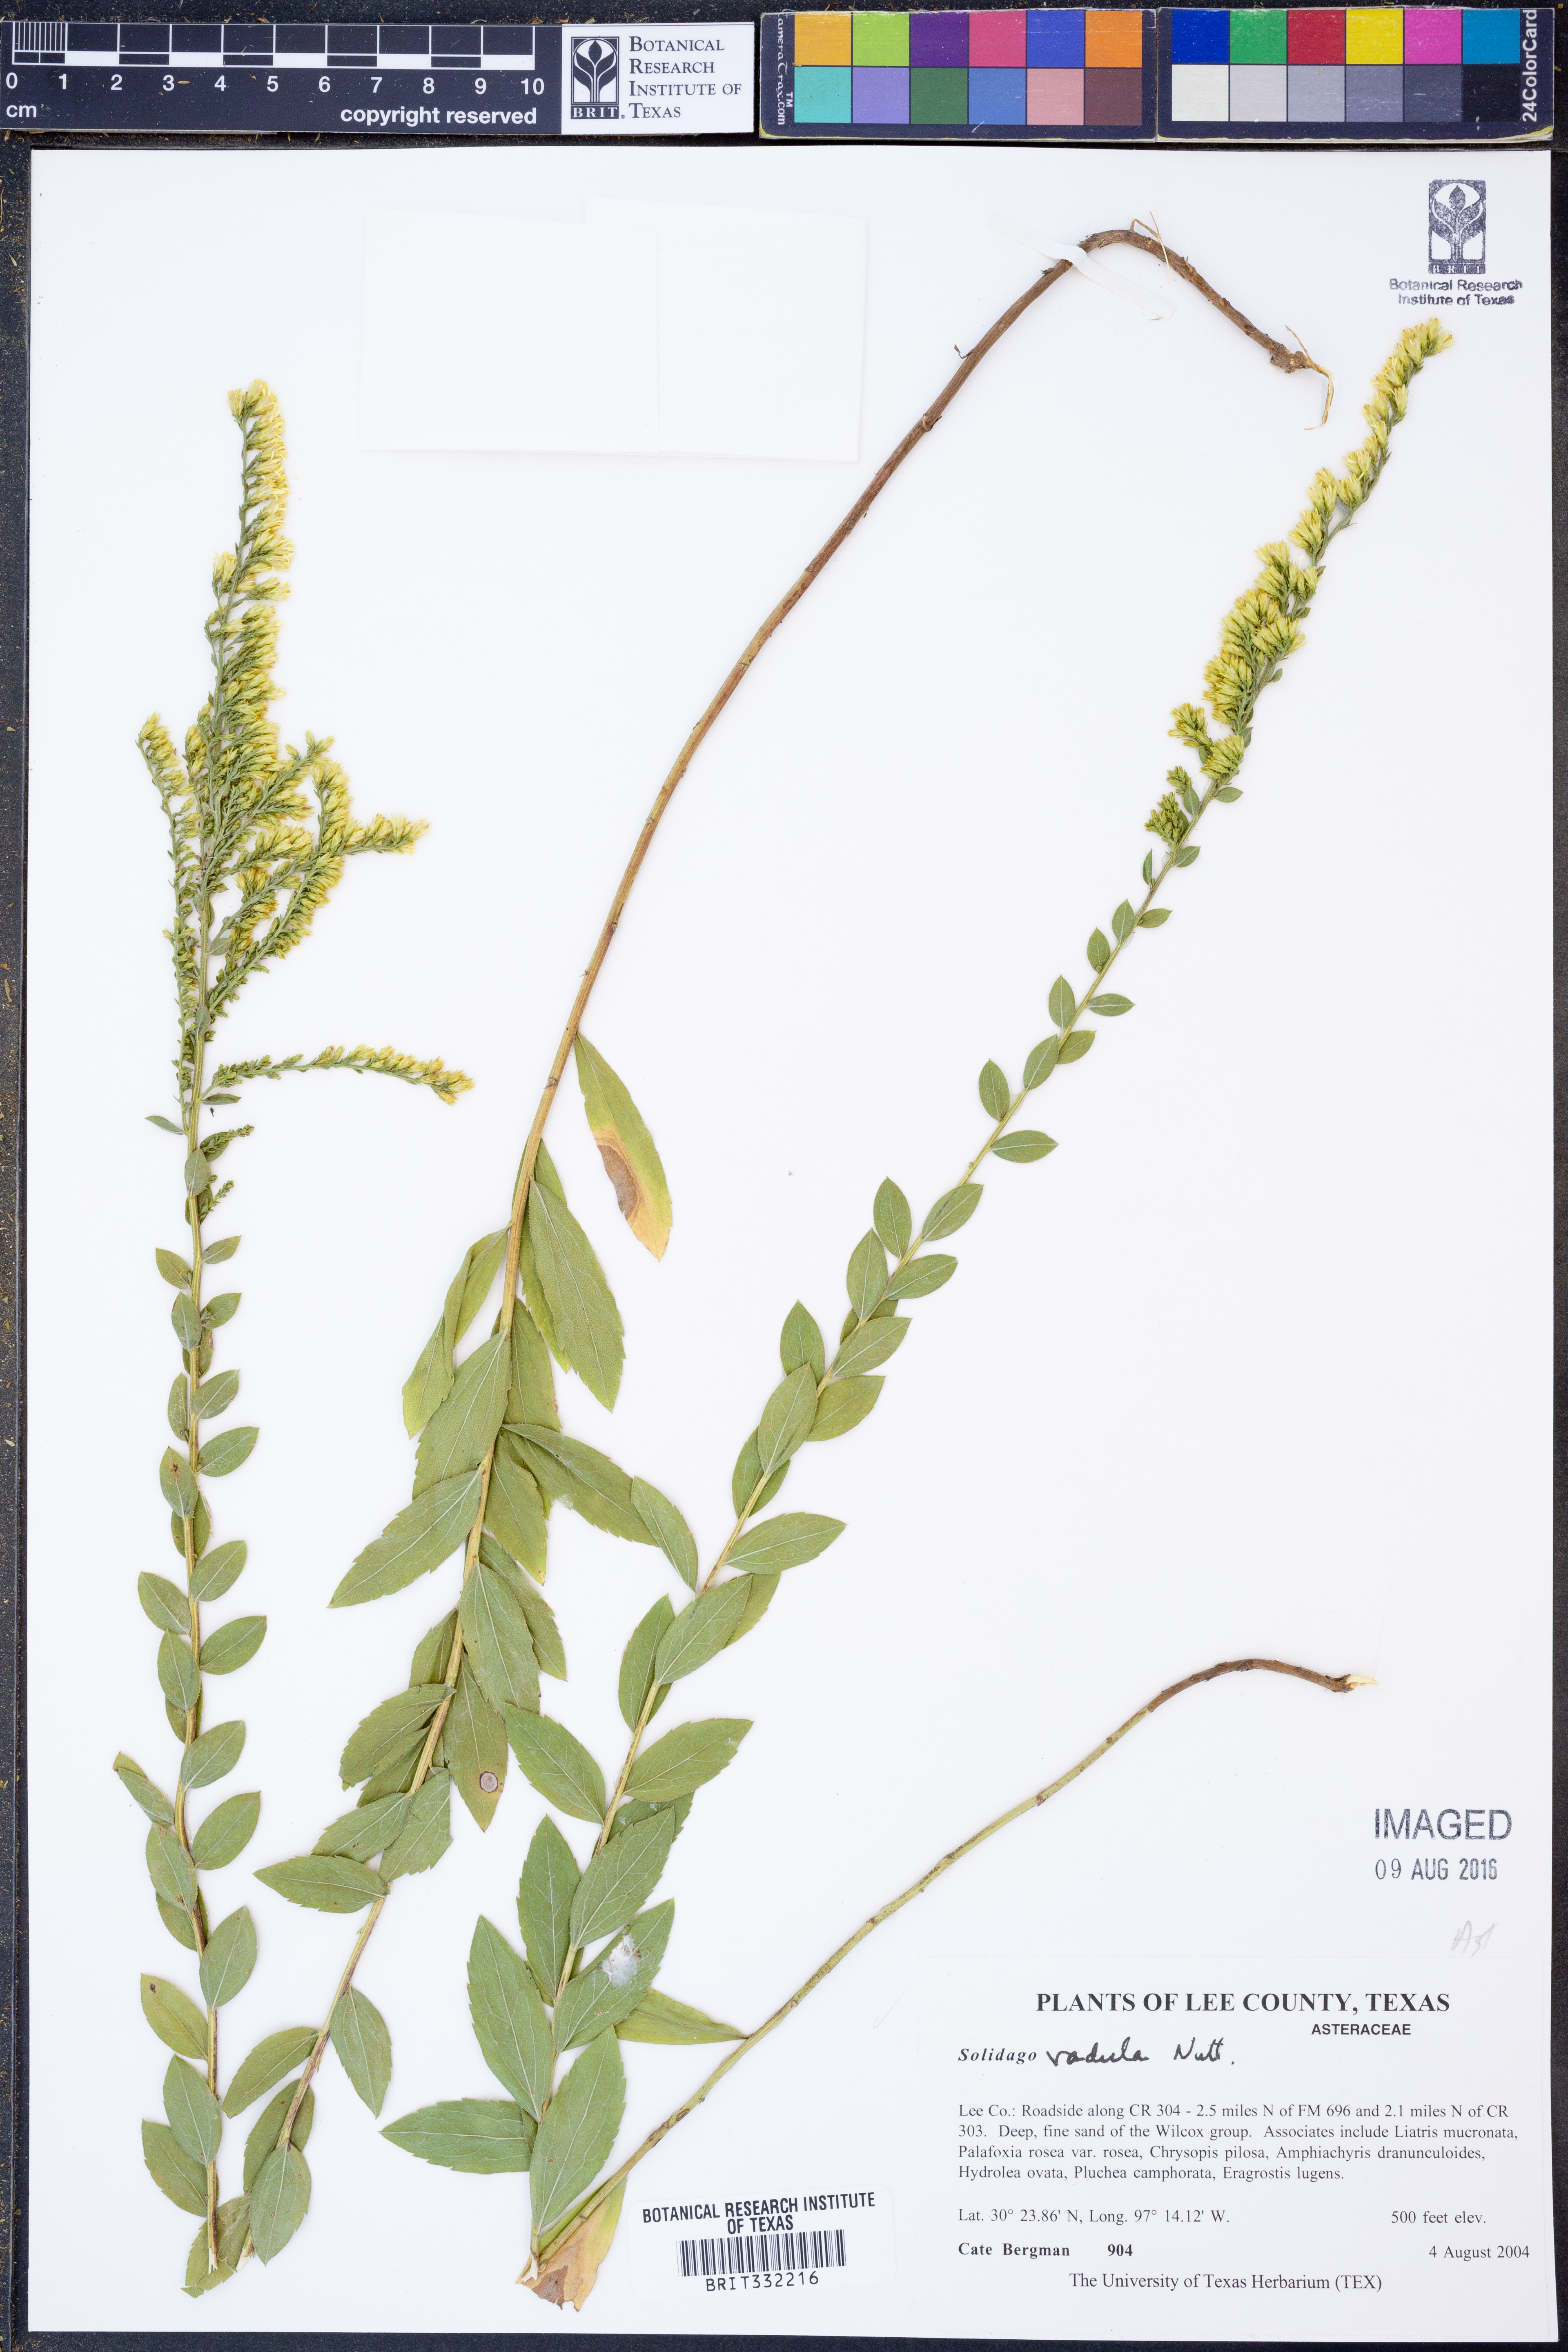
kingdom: Plantae
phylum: Tracheophyta
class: Magnoliopsida
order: Asterales
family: Asteraceae
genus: Solidago
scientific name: Solidago radula
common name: Western rough goldenrod
